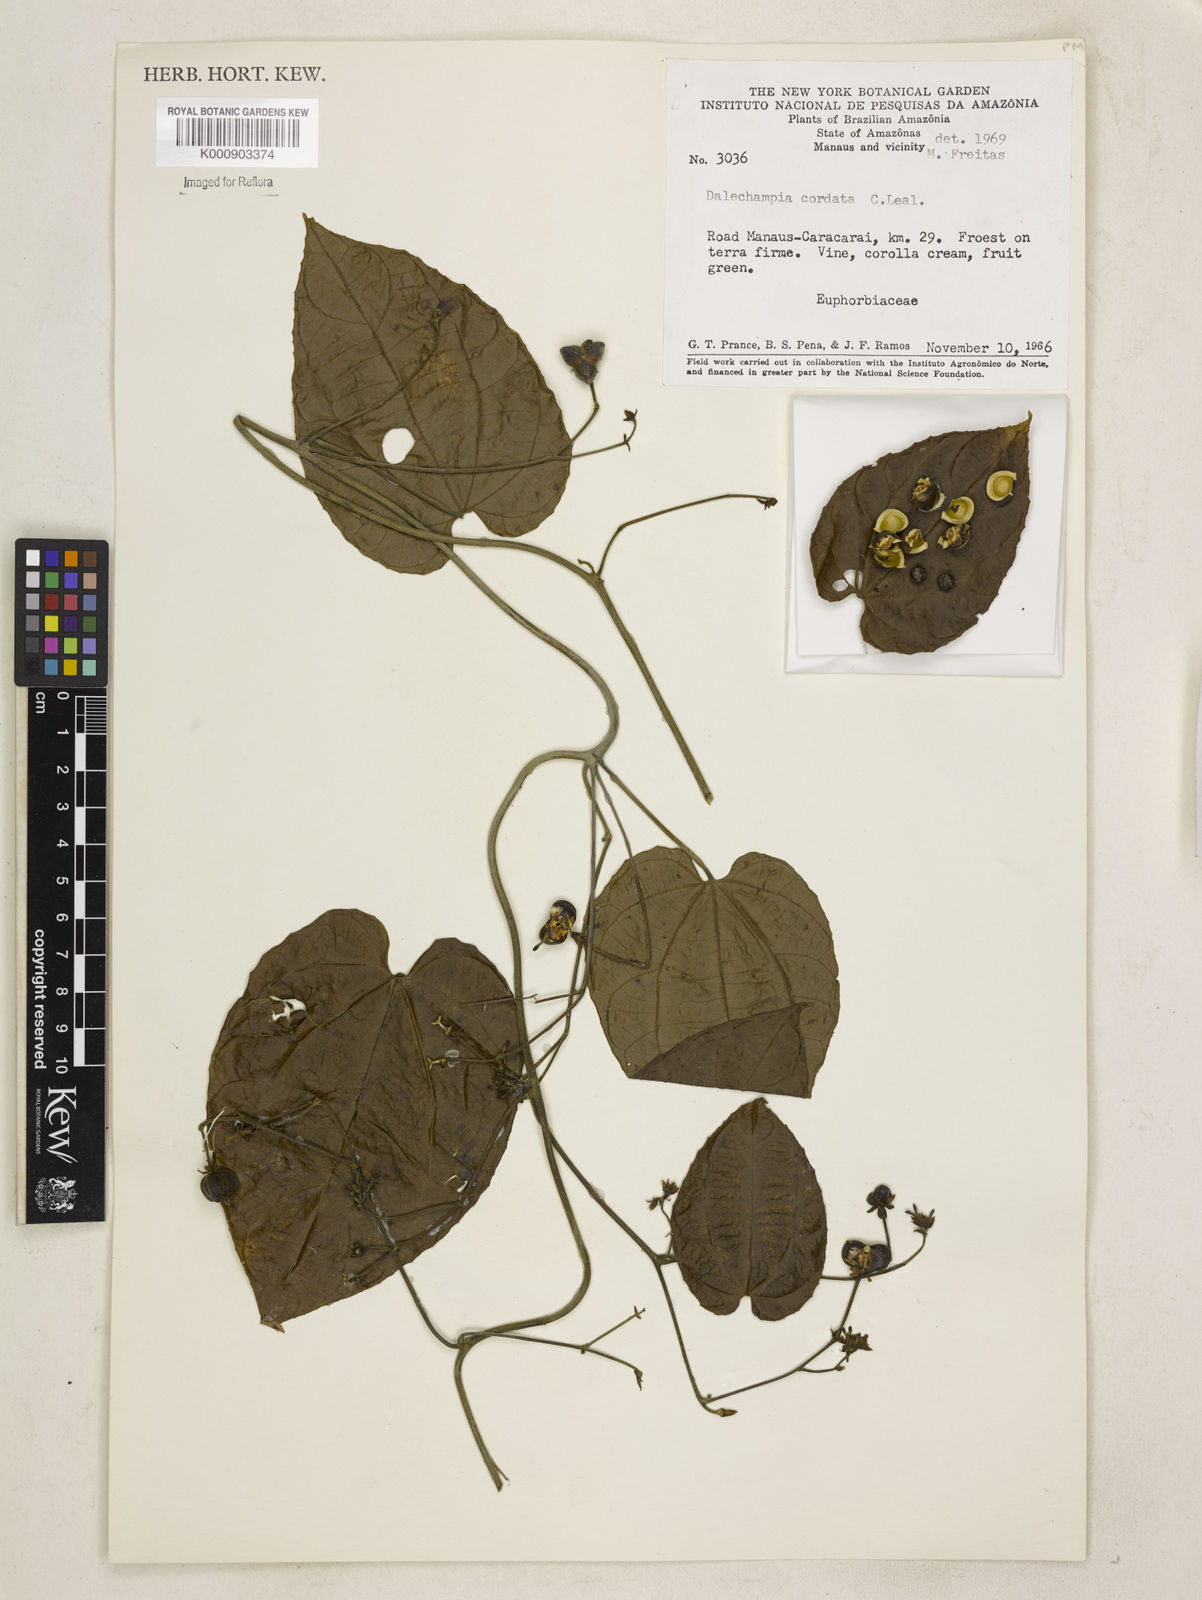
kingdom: Plantae
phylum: Tracheophyta
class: Magnoliopsida
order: Malpighiales
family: Euphorbiaceae
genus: Dalechampia
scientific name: Dalechampia aristolochiifolia
